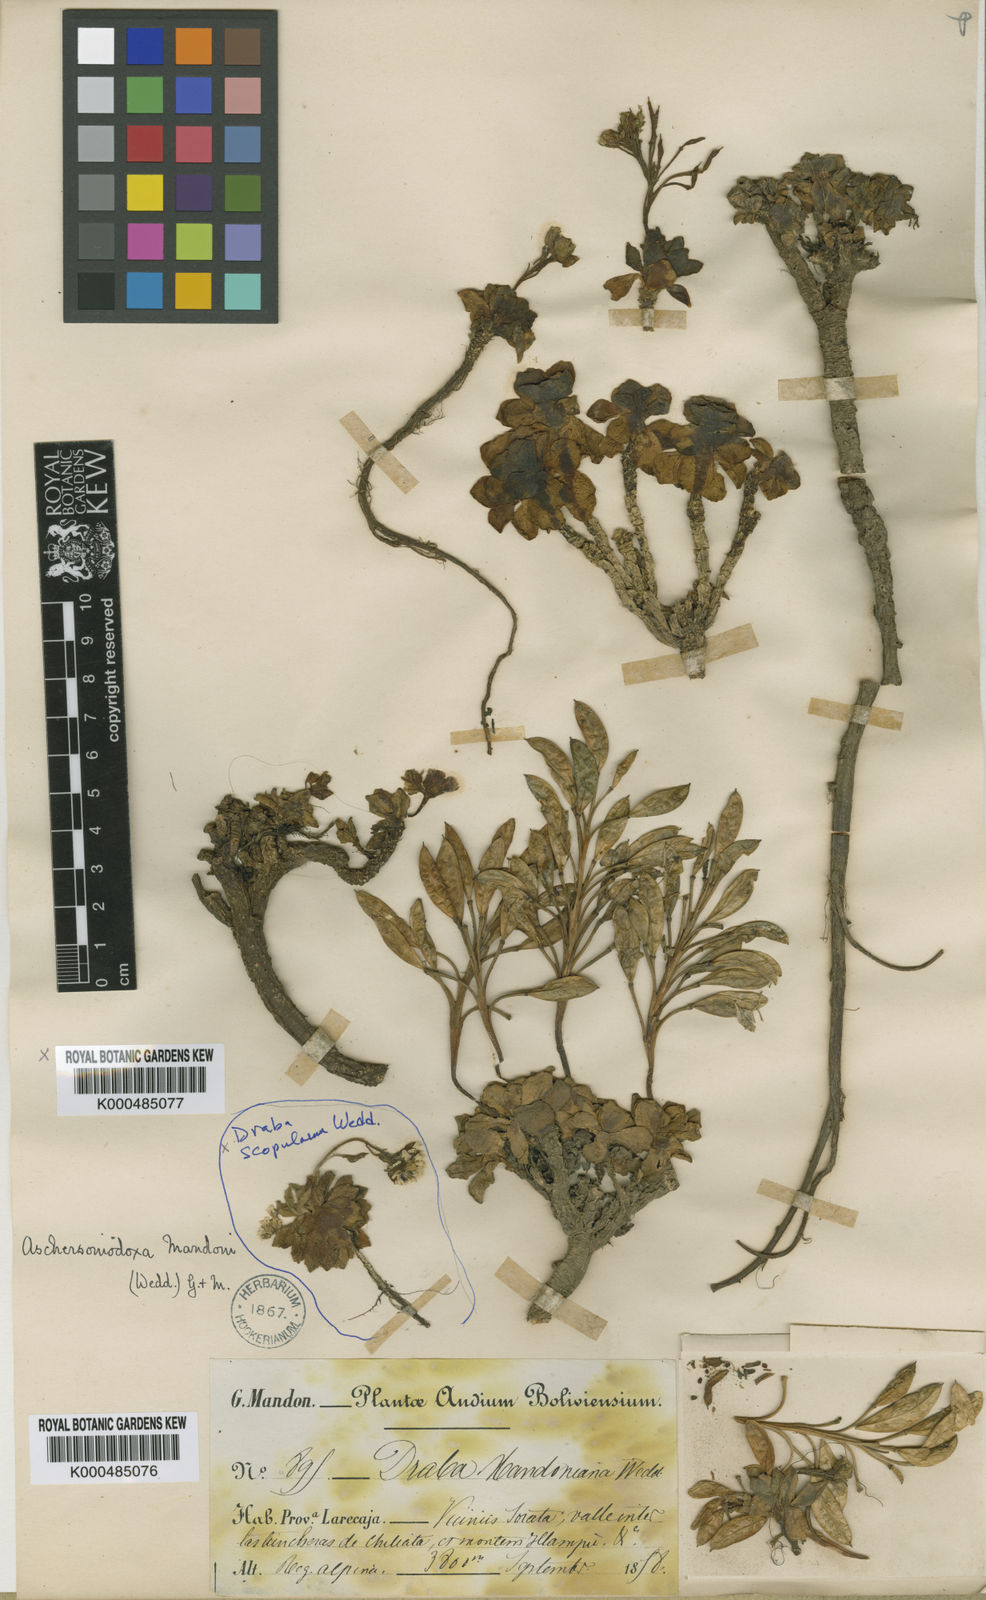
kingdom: Plantae
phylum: Tracheophyta
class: Magnoliopsida
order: Brassicales
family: Brassicaceae
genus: Aschersoniodoxa
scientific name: Aschersoniodoxa mandoniana
